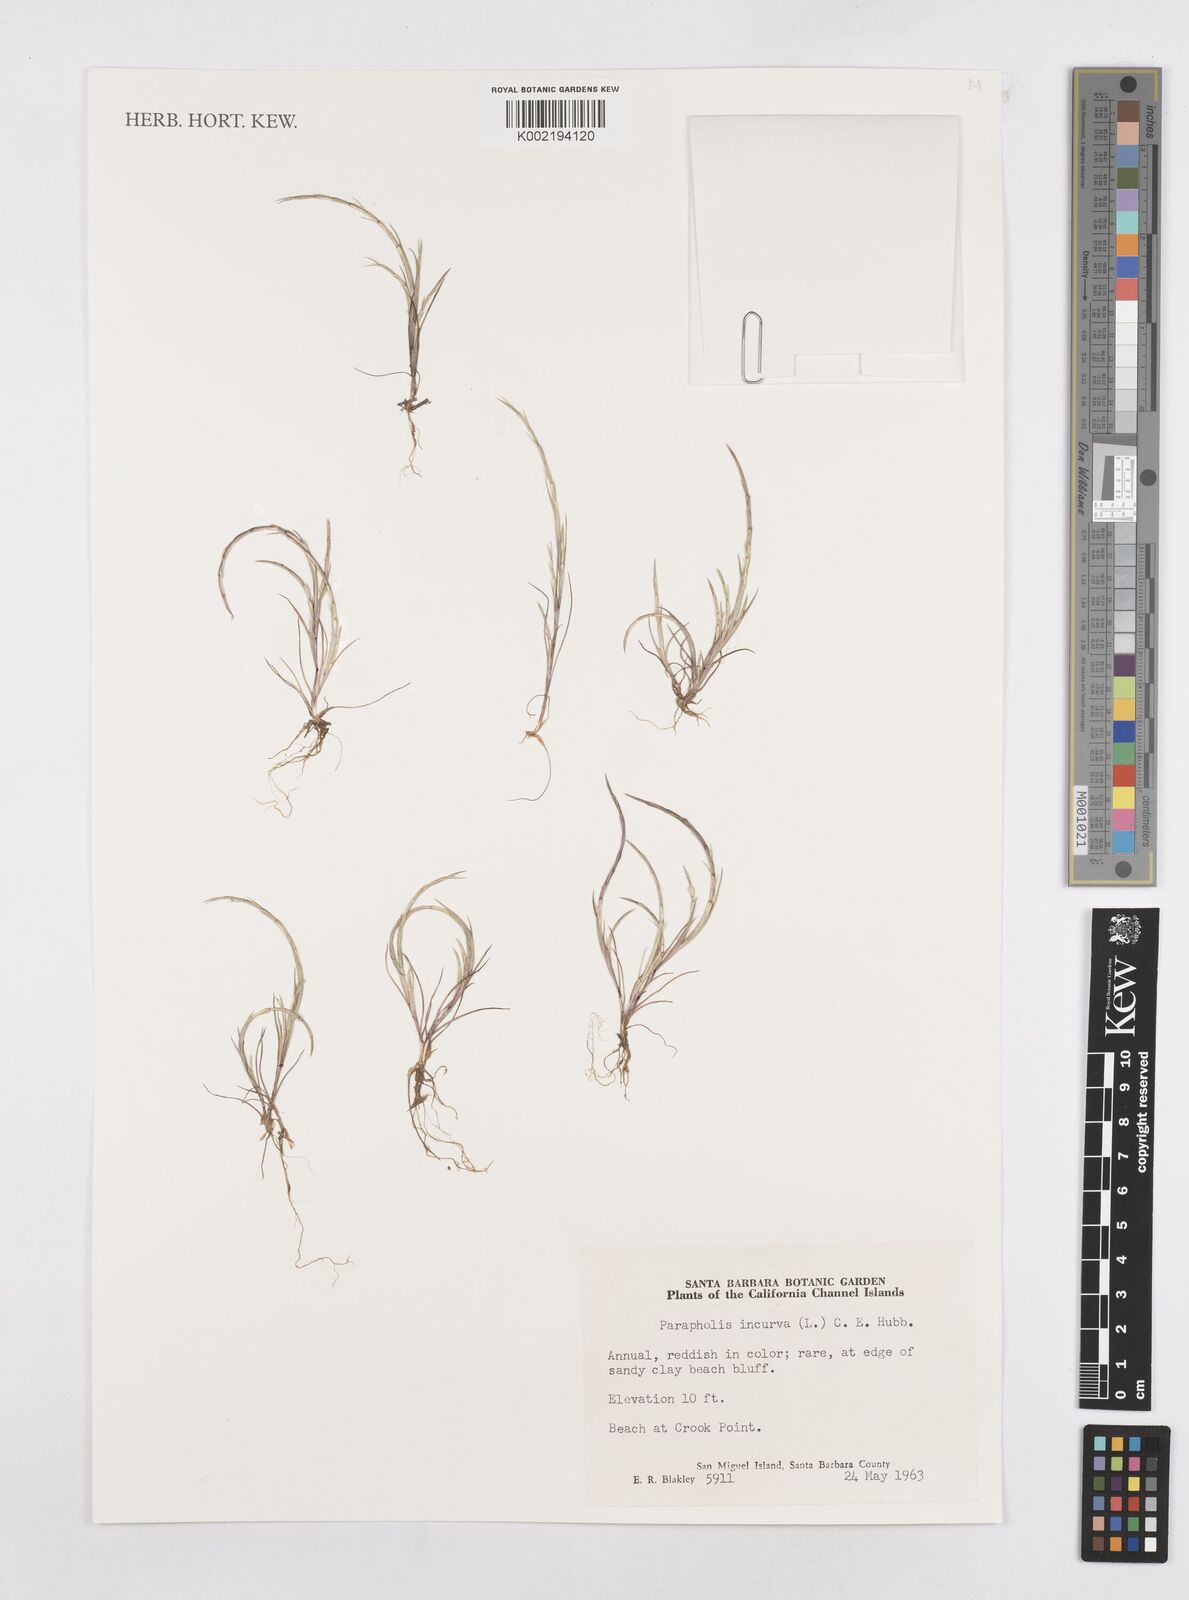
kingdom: Plantae
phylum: Tracheophyta
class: Liliopsida
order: Poales
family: Poaceae
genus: Parapholis
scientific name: Parapholis incurva
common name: Curved sicklegrass
